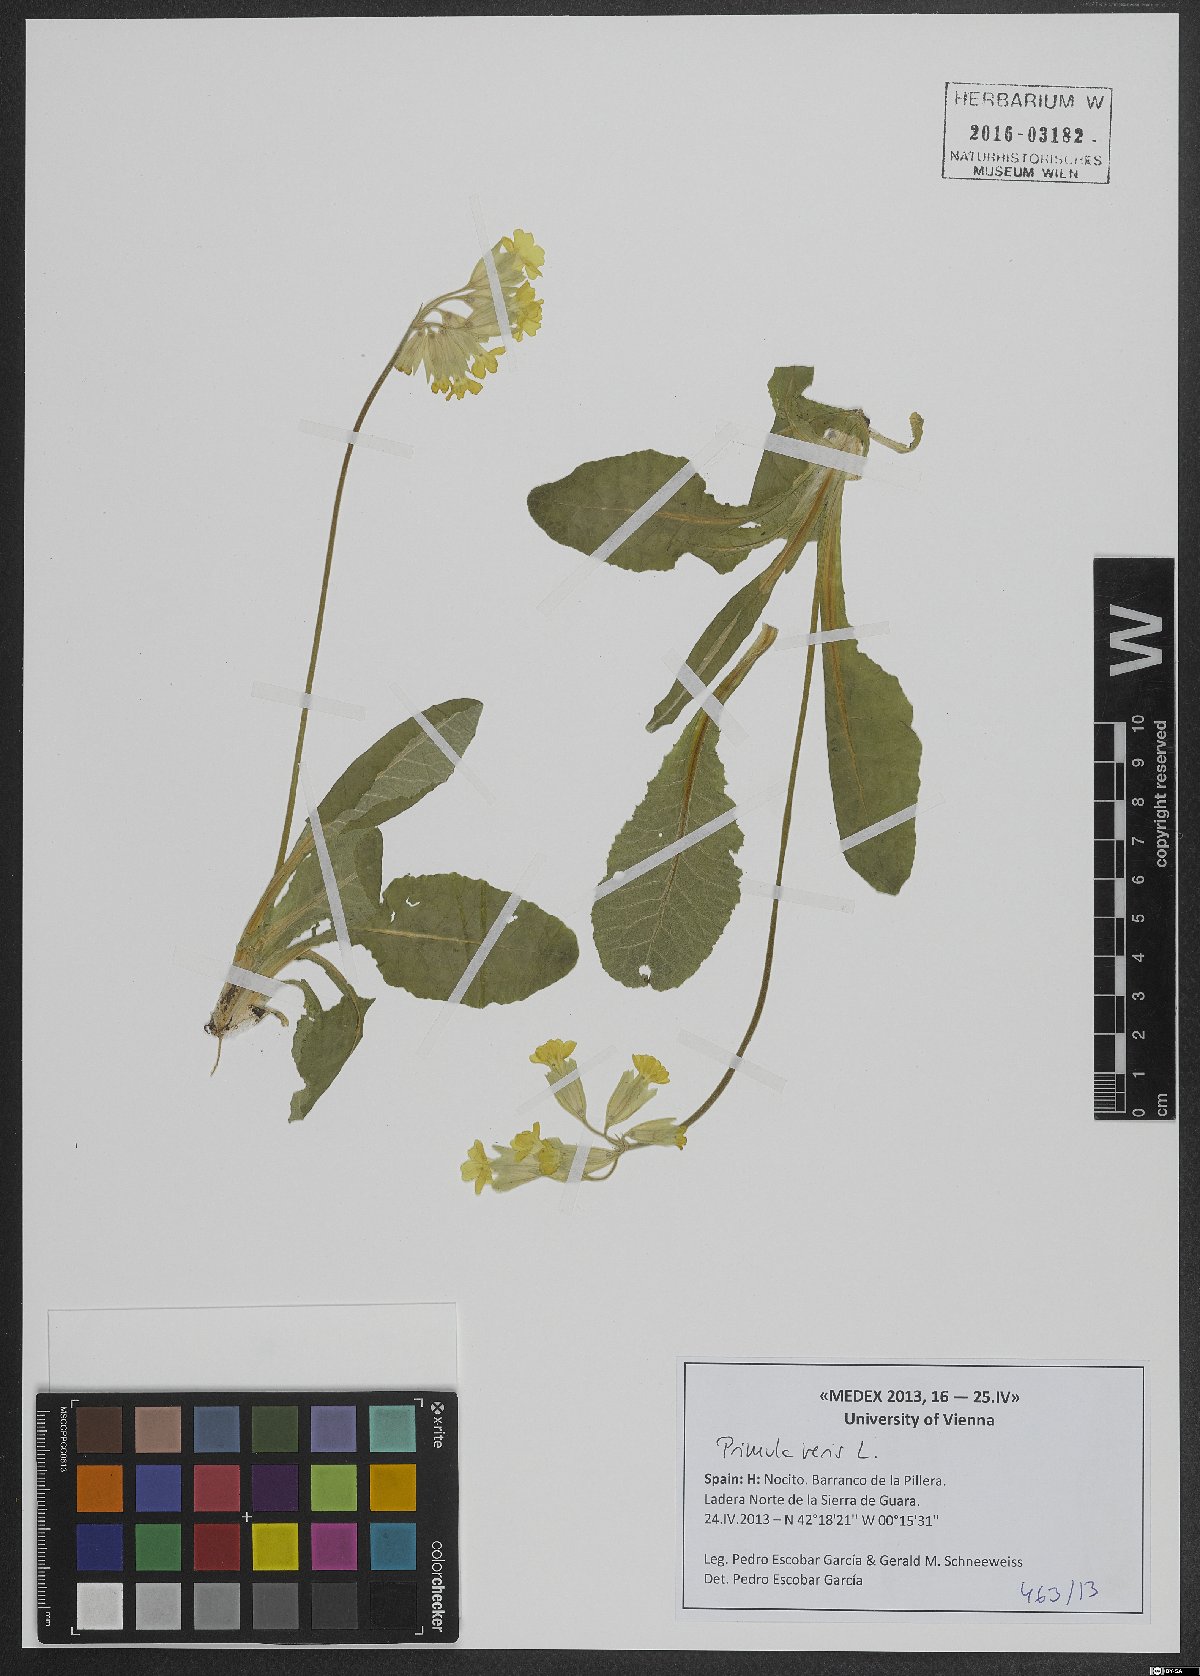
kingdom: Plantae
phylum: Tracheophyta
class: Magnoliopsida
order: Ericales
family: Primulaceae
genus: Primula
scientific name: Primula veris
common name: Cowslip
